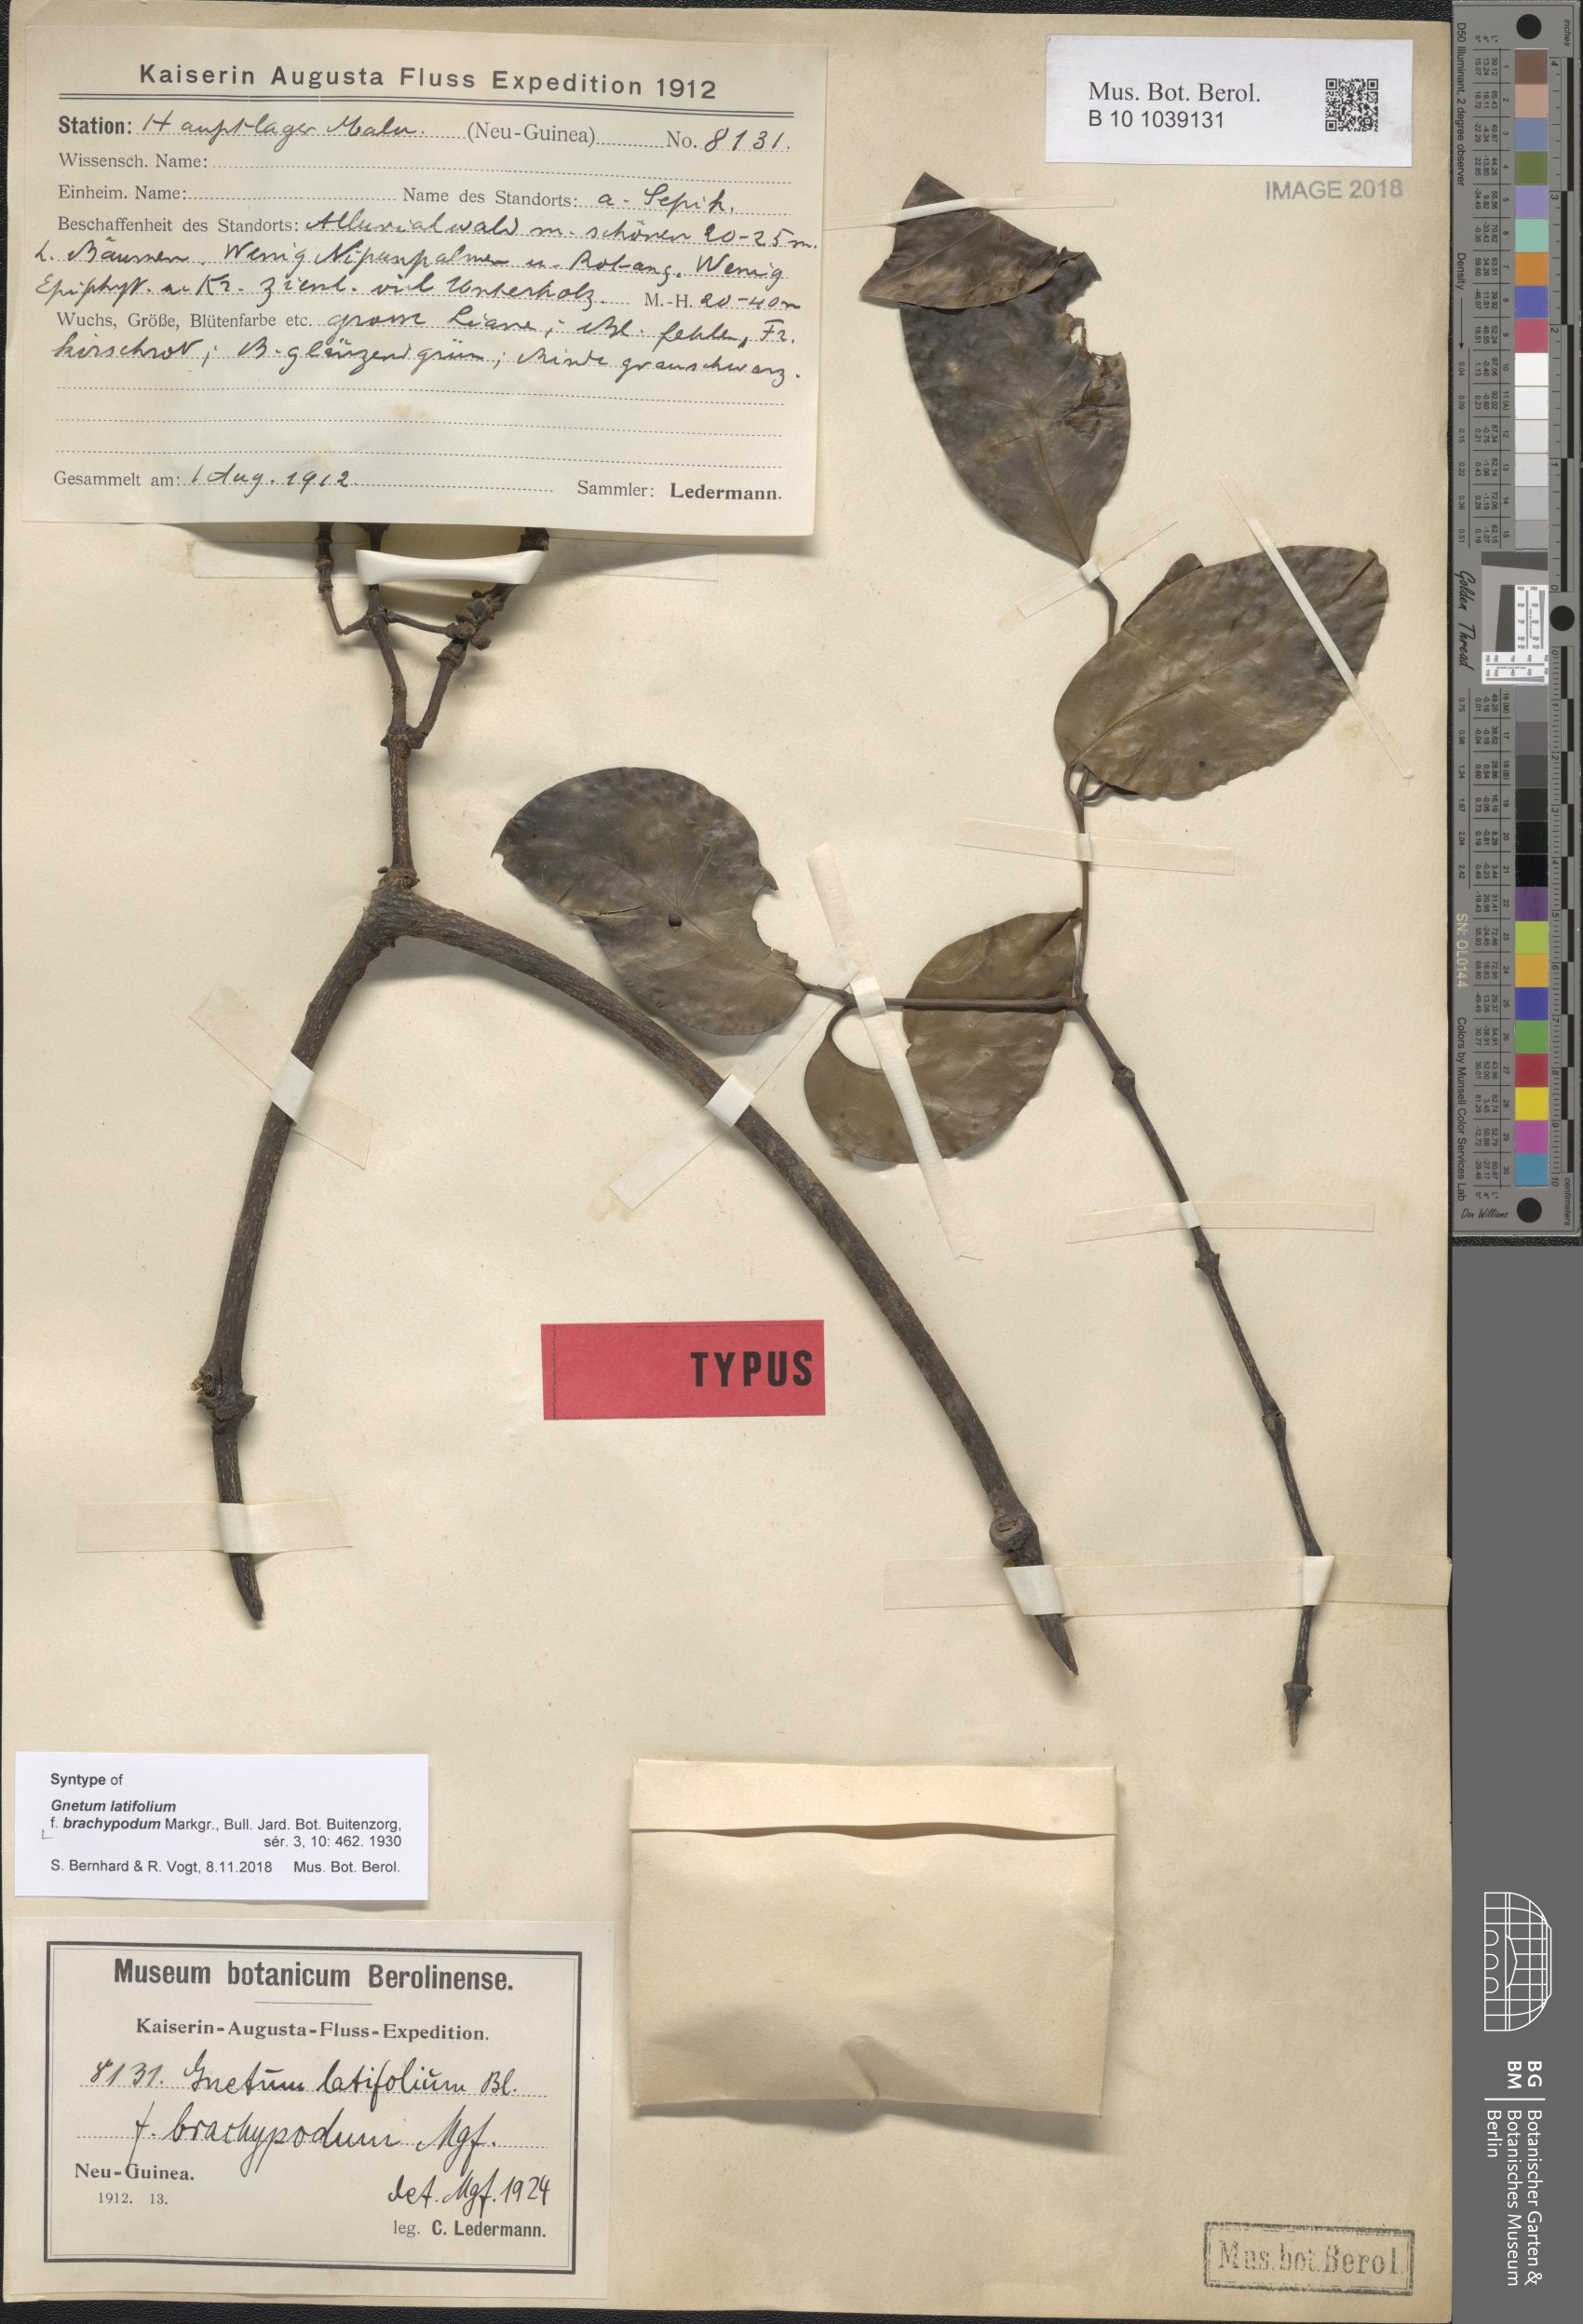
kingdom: Plantae
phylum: Tracheophyta
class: Gnetopsida
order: Gnetales
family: Gnetaceae
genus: Gnetum
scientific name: Gnetum latifolium
